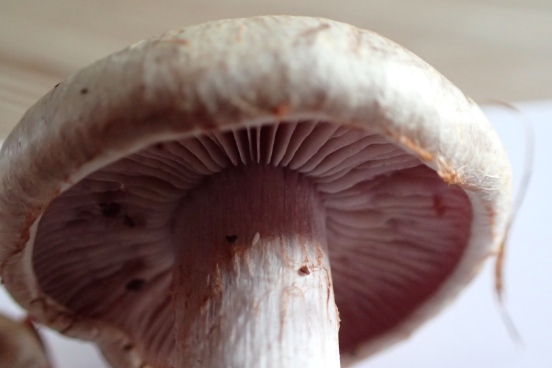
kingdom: Fungi
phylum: Basidiomycota
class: Agaricomycetes
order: Agaricales
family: Cortinariaceae
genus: Cortinarius
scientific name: Cortinarius
